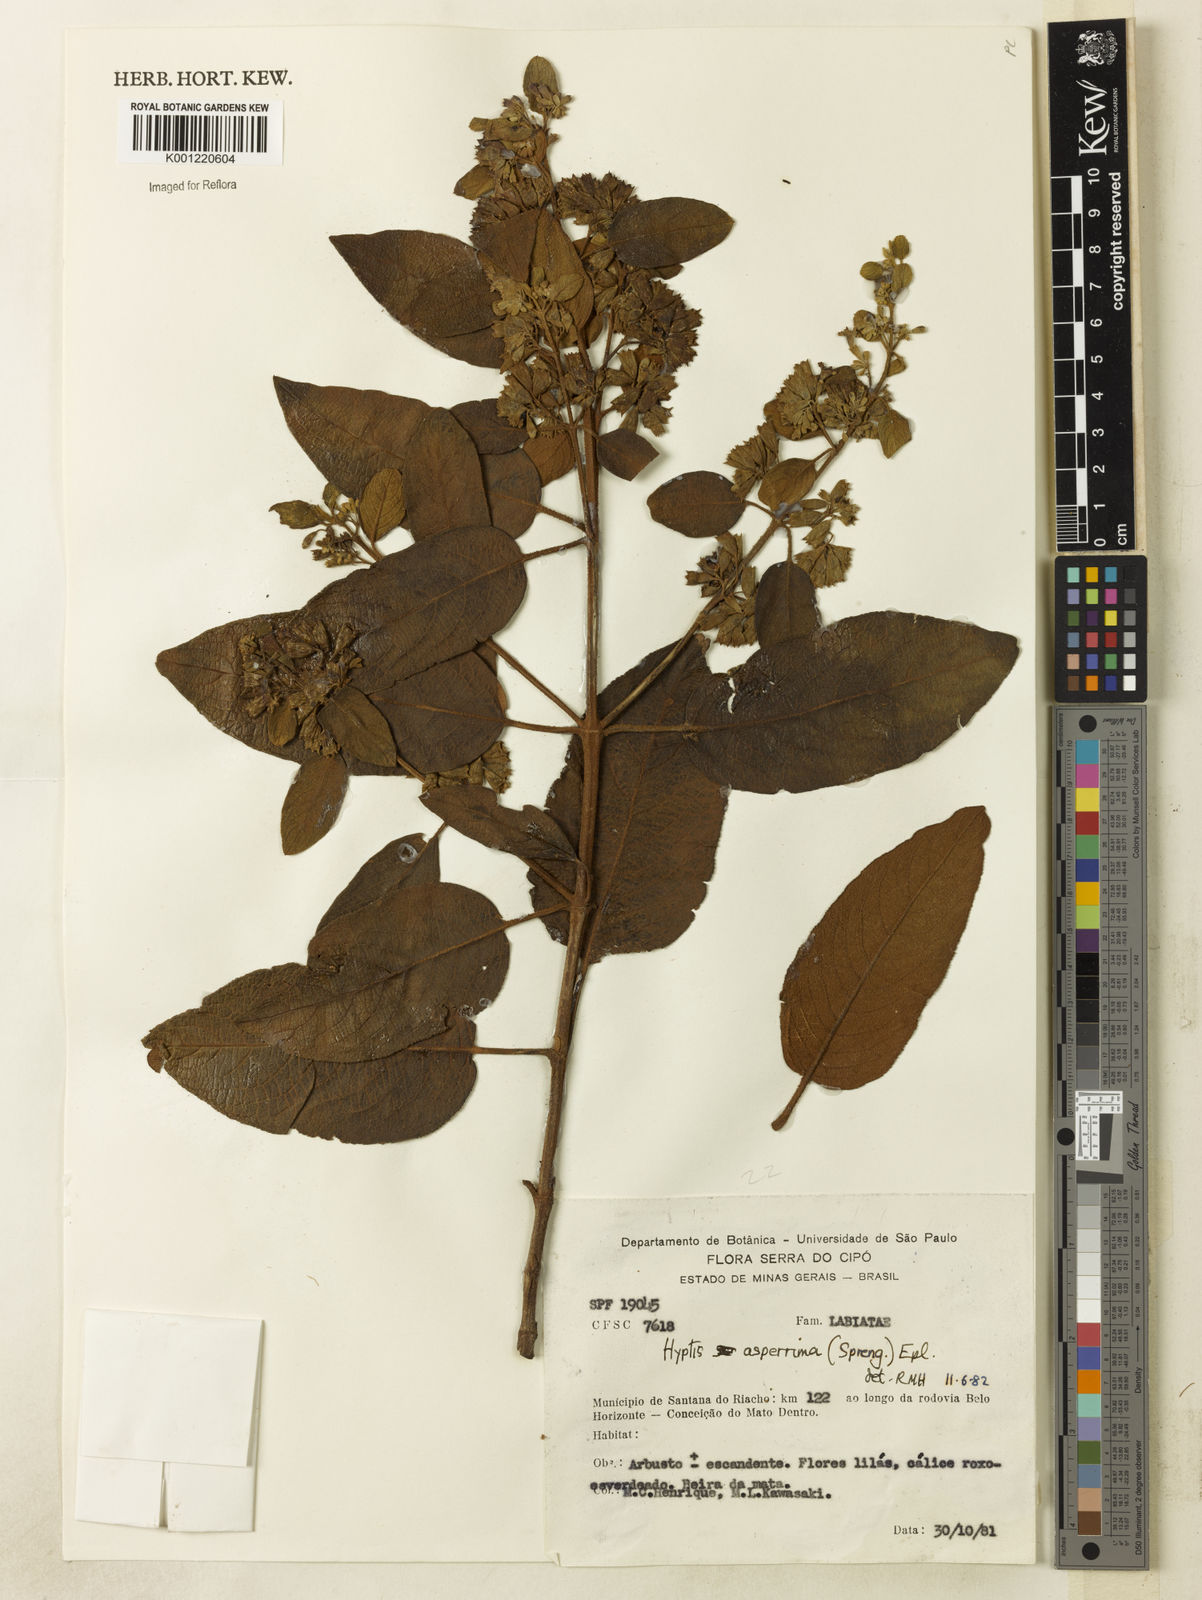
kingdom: Plantae
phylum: Tracheophyta
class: Magnoliopsida
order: Lamiales
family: Lamiaceae
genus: Hyptidendron
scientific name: Hyptidendron asperrimum
